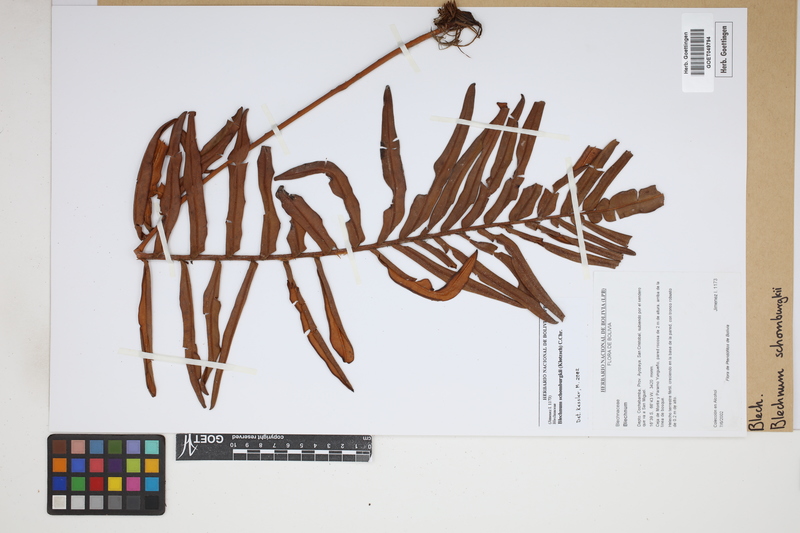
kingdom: Plantae
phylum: Tracheophyta
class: Polypodiopsida
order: Polypodiales
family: Blechnaceae
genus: Lomariocycas
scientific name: Lomariocycas schomburgkii
